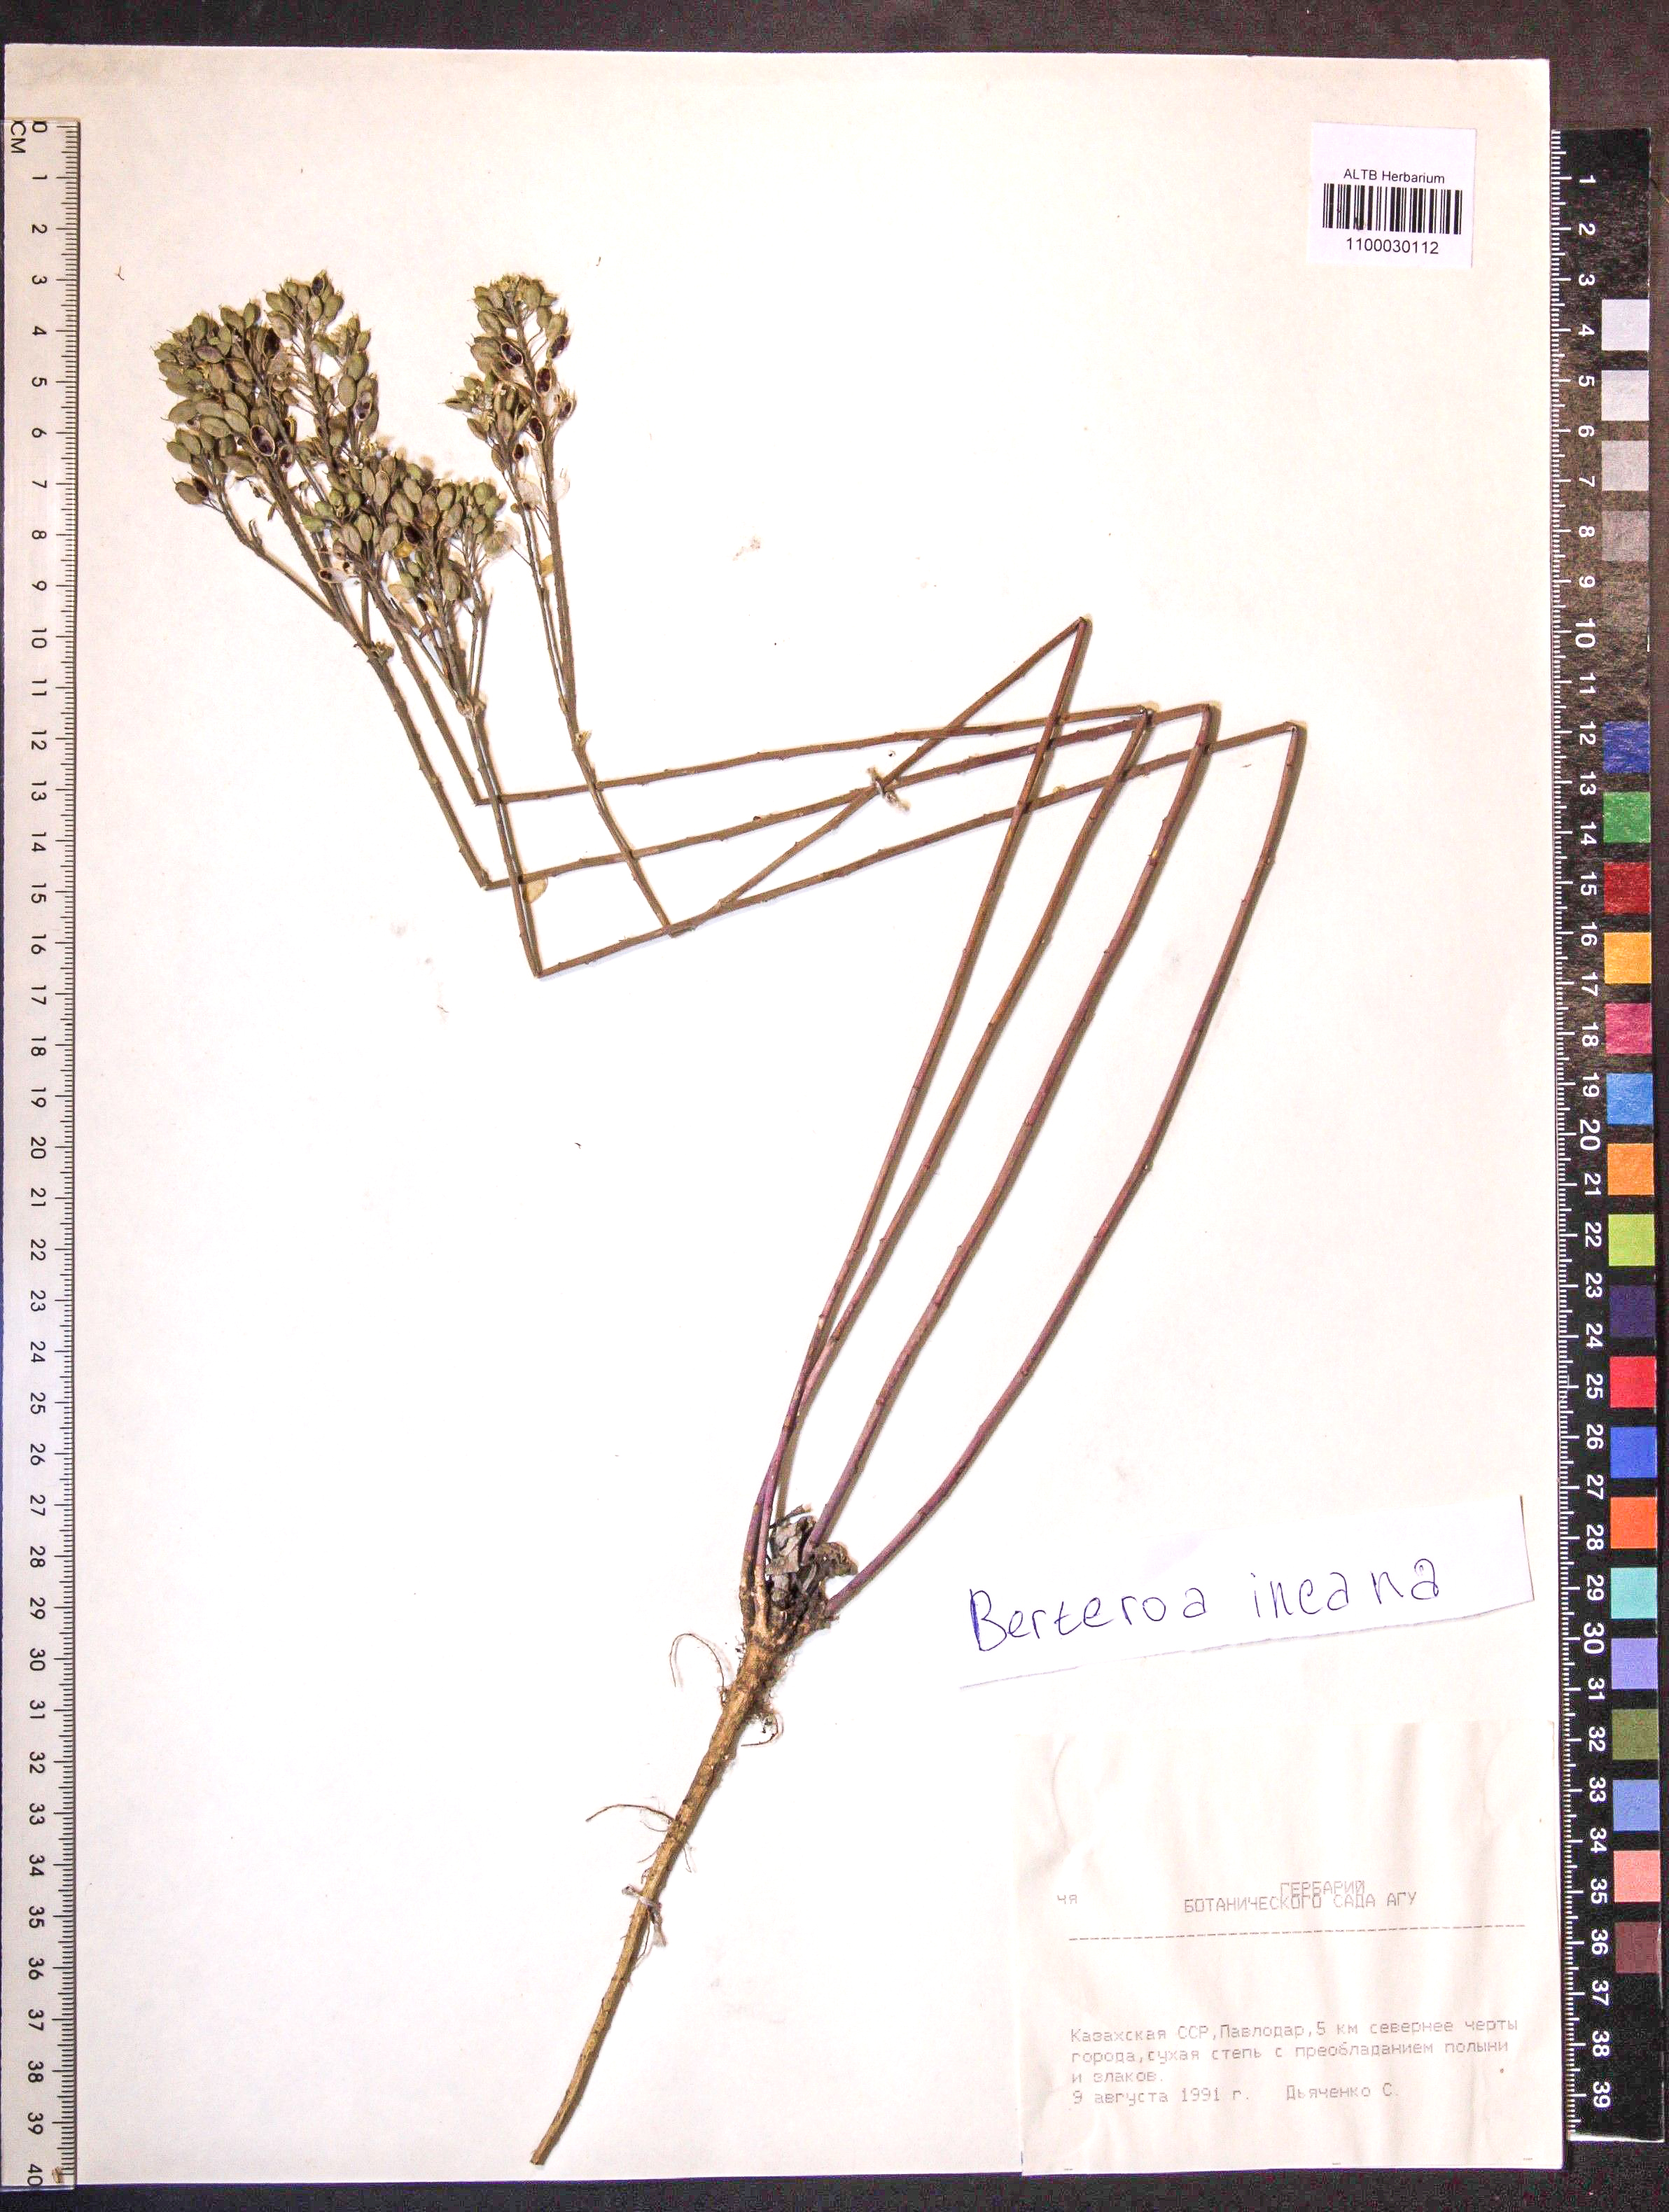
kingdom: Plantae
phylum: Tracheophyta
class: Magnoliopsida
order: Brassicales
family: Brassicaceae
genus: Berteroa
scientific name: Berteroa incana
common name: Hoary alison
